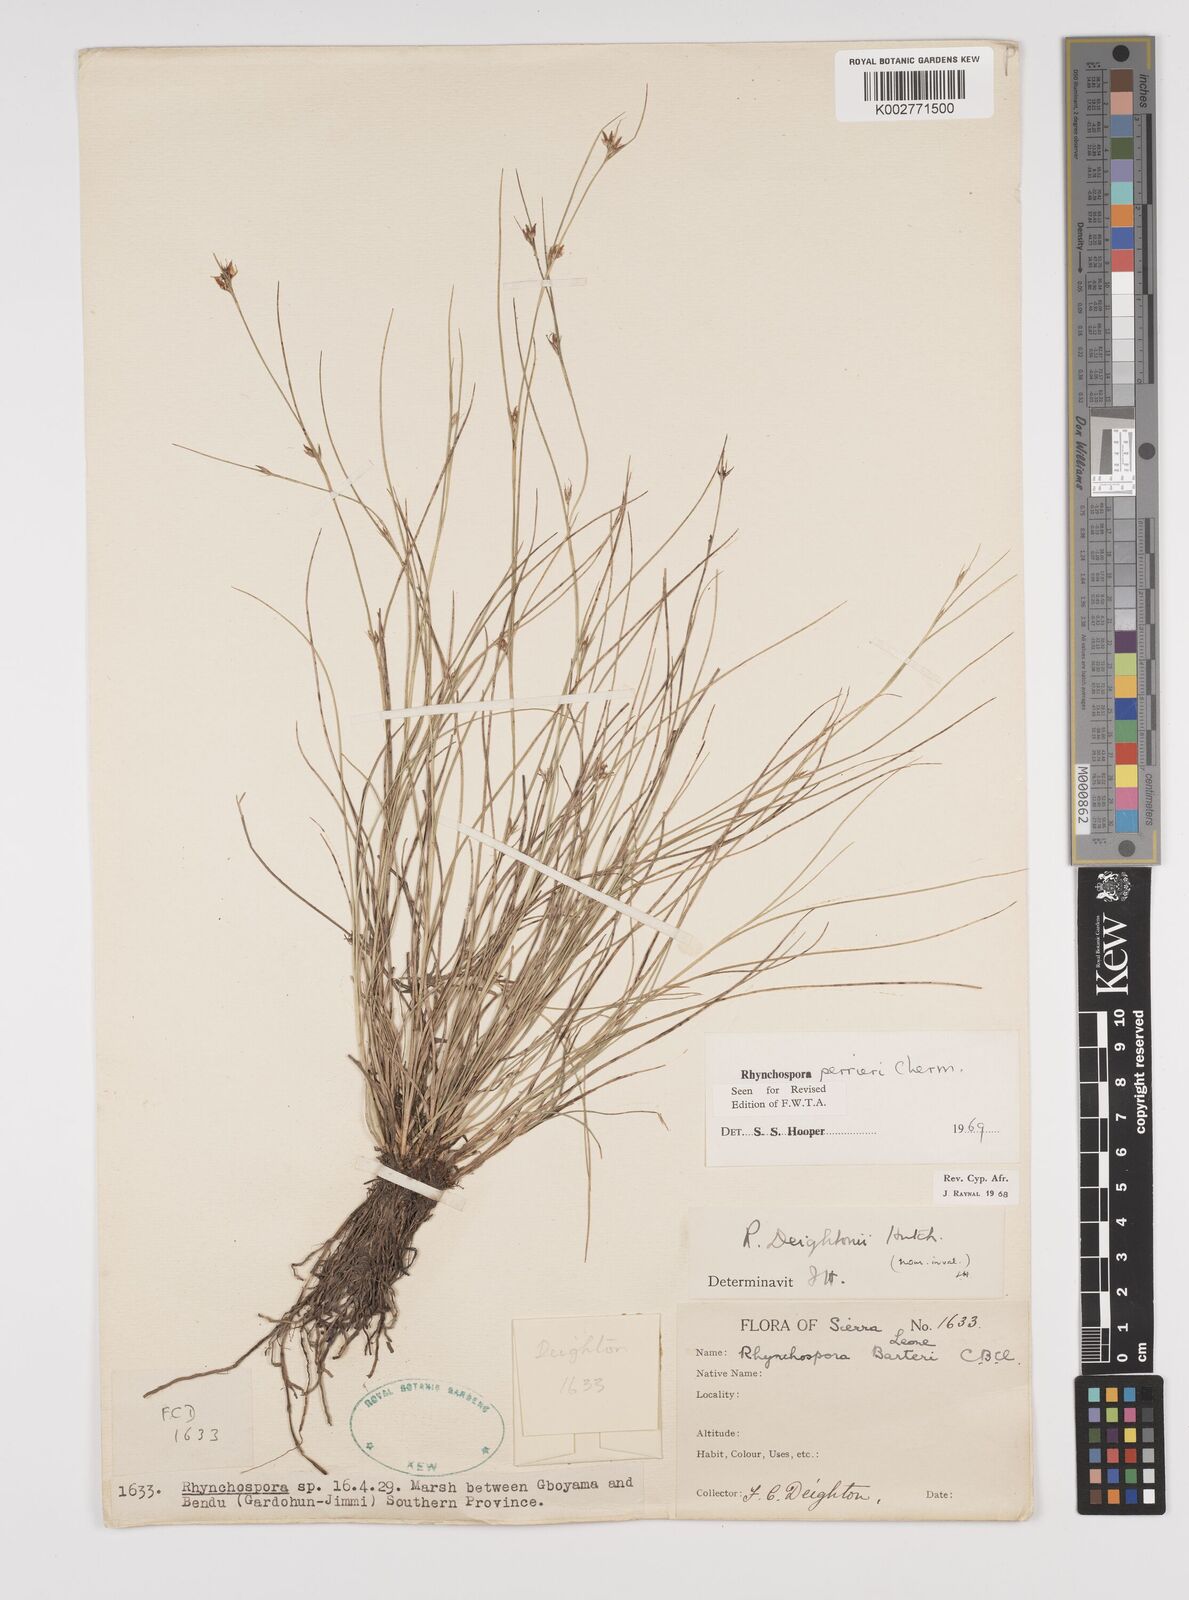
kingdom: Plantae
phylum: Tracheophyta
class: Liliopsida
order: Poales
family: Cyperaceae
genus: Rhynchospora
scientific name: Rhynchospora perrieri
